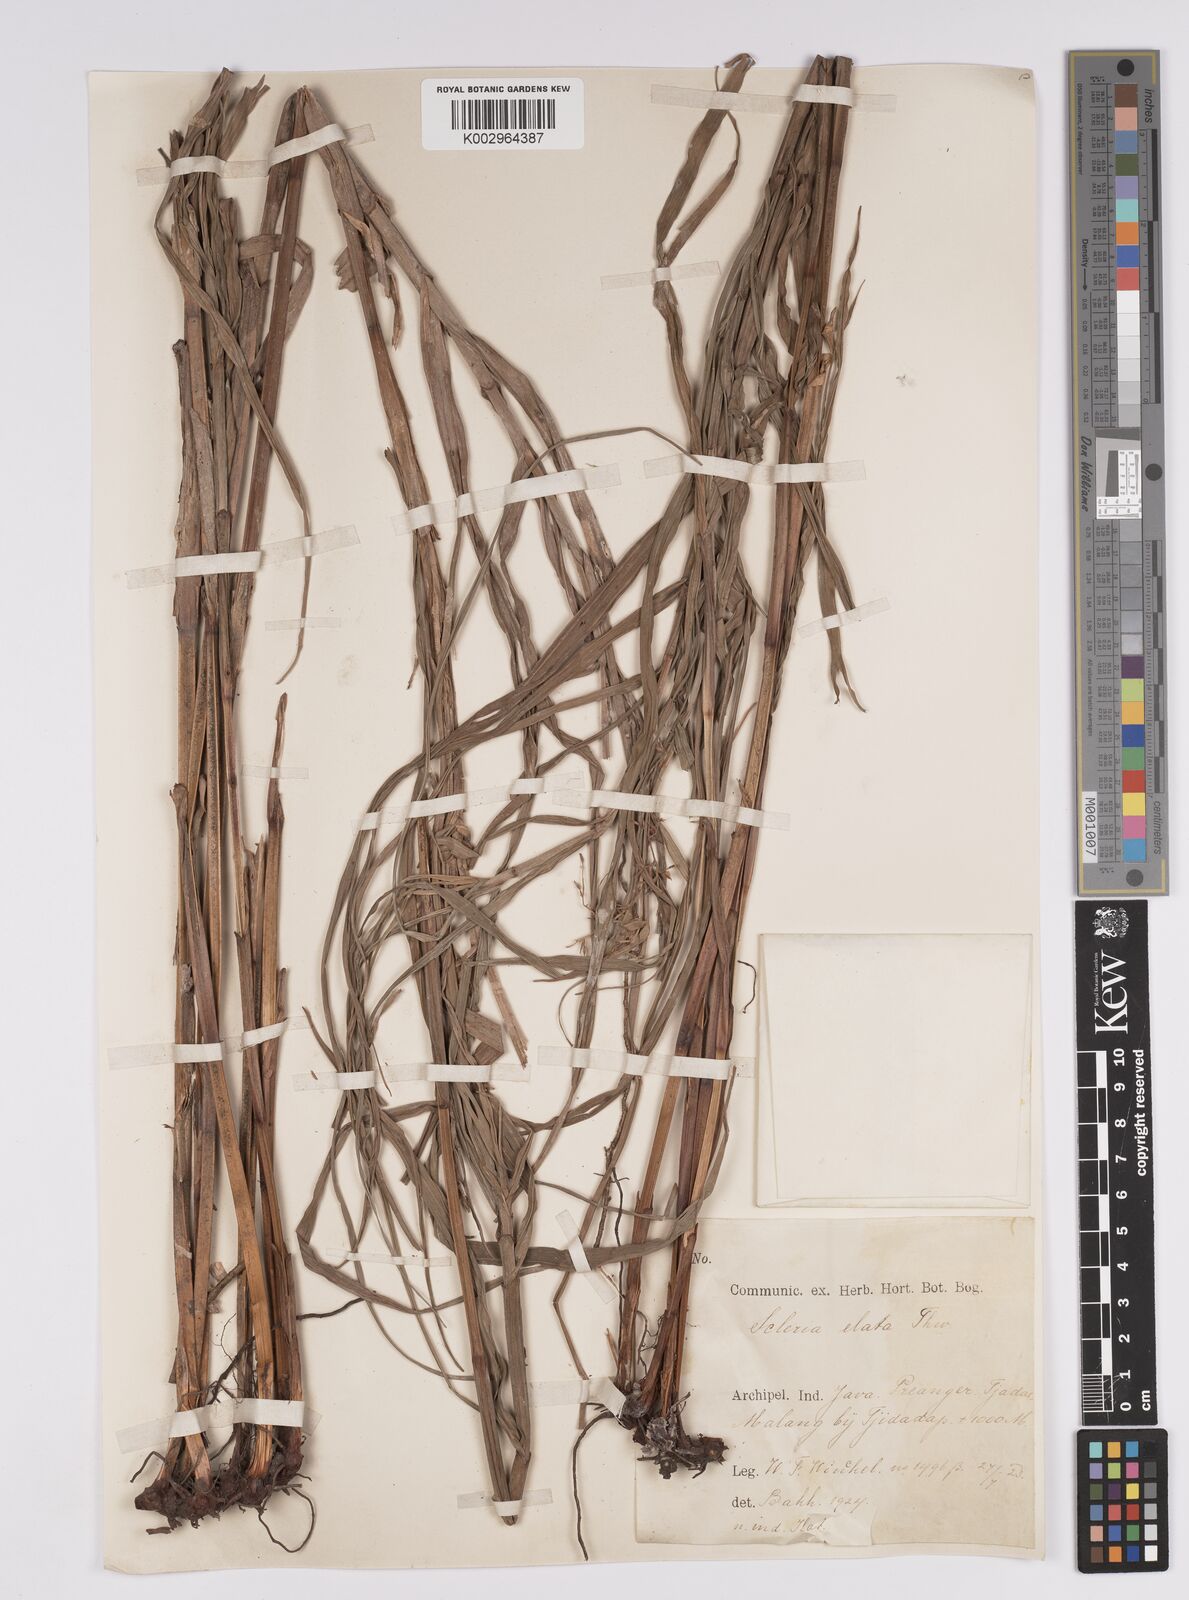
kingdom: Plantae
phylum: Tracheophyta
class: Liliopsida
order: Poales
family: Cyperaceae
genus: Scleria
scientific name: Scleria terrestris
